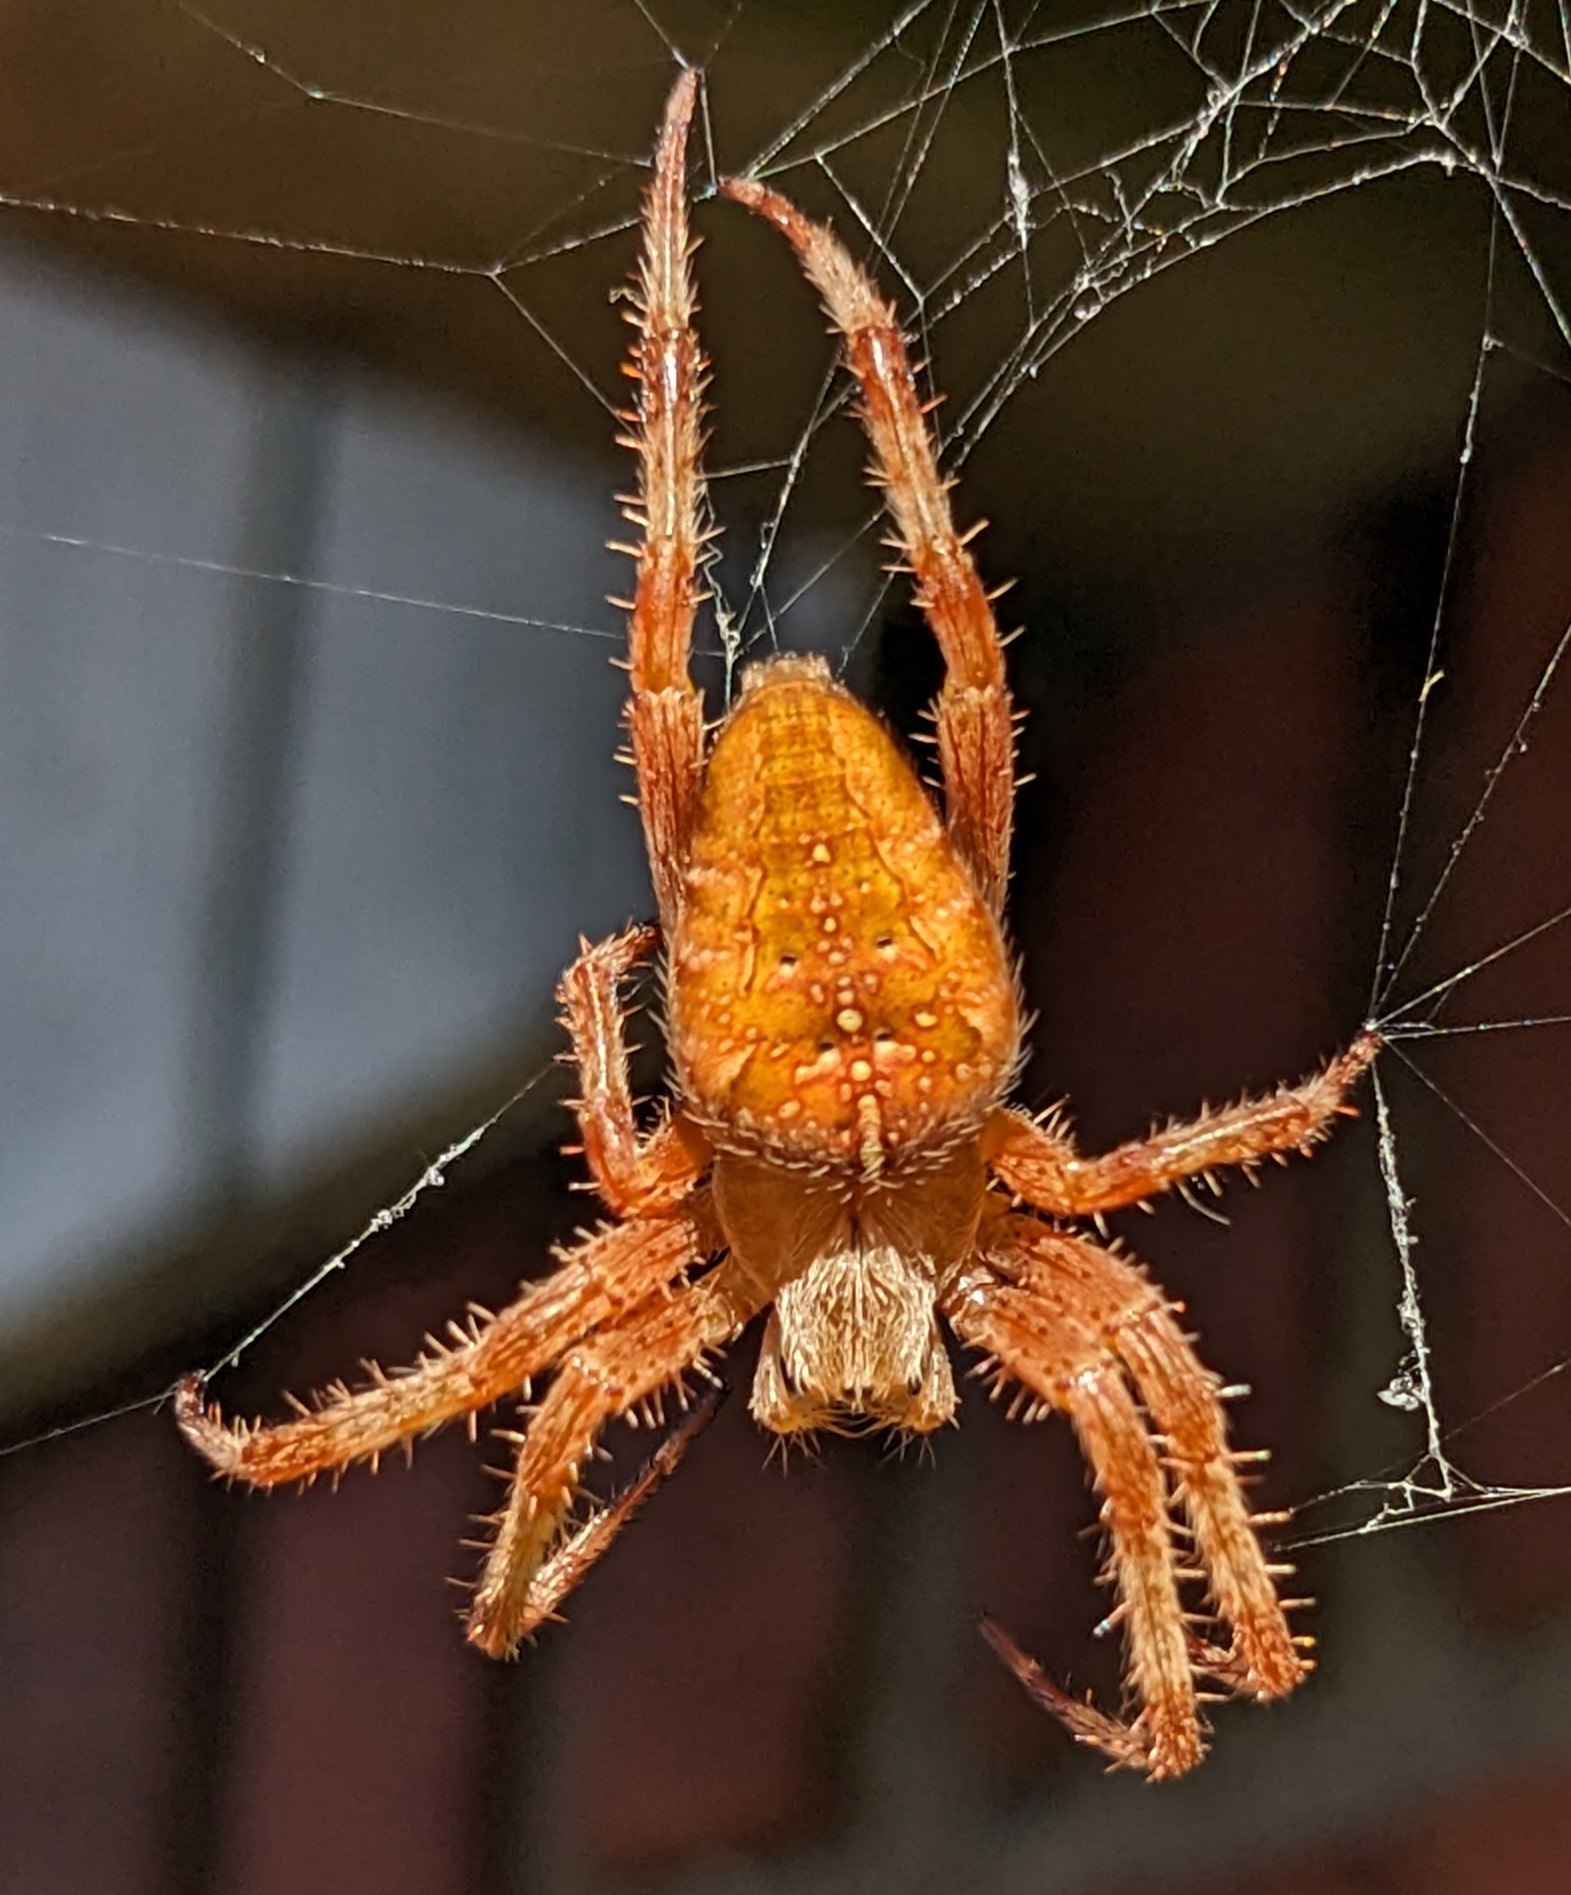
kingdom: Animalia
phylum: Arthropoda
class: Arachnida
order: Araneae
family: Araneidae
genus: Araneus
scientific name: Araneus diadematus
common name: Korsedderkop
